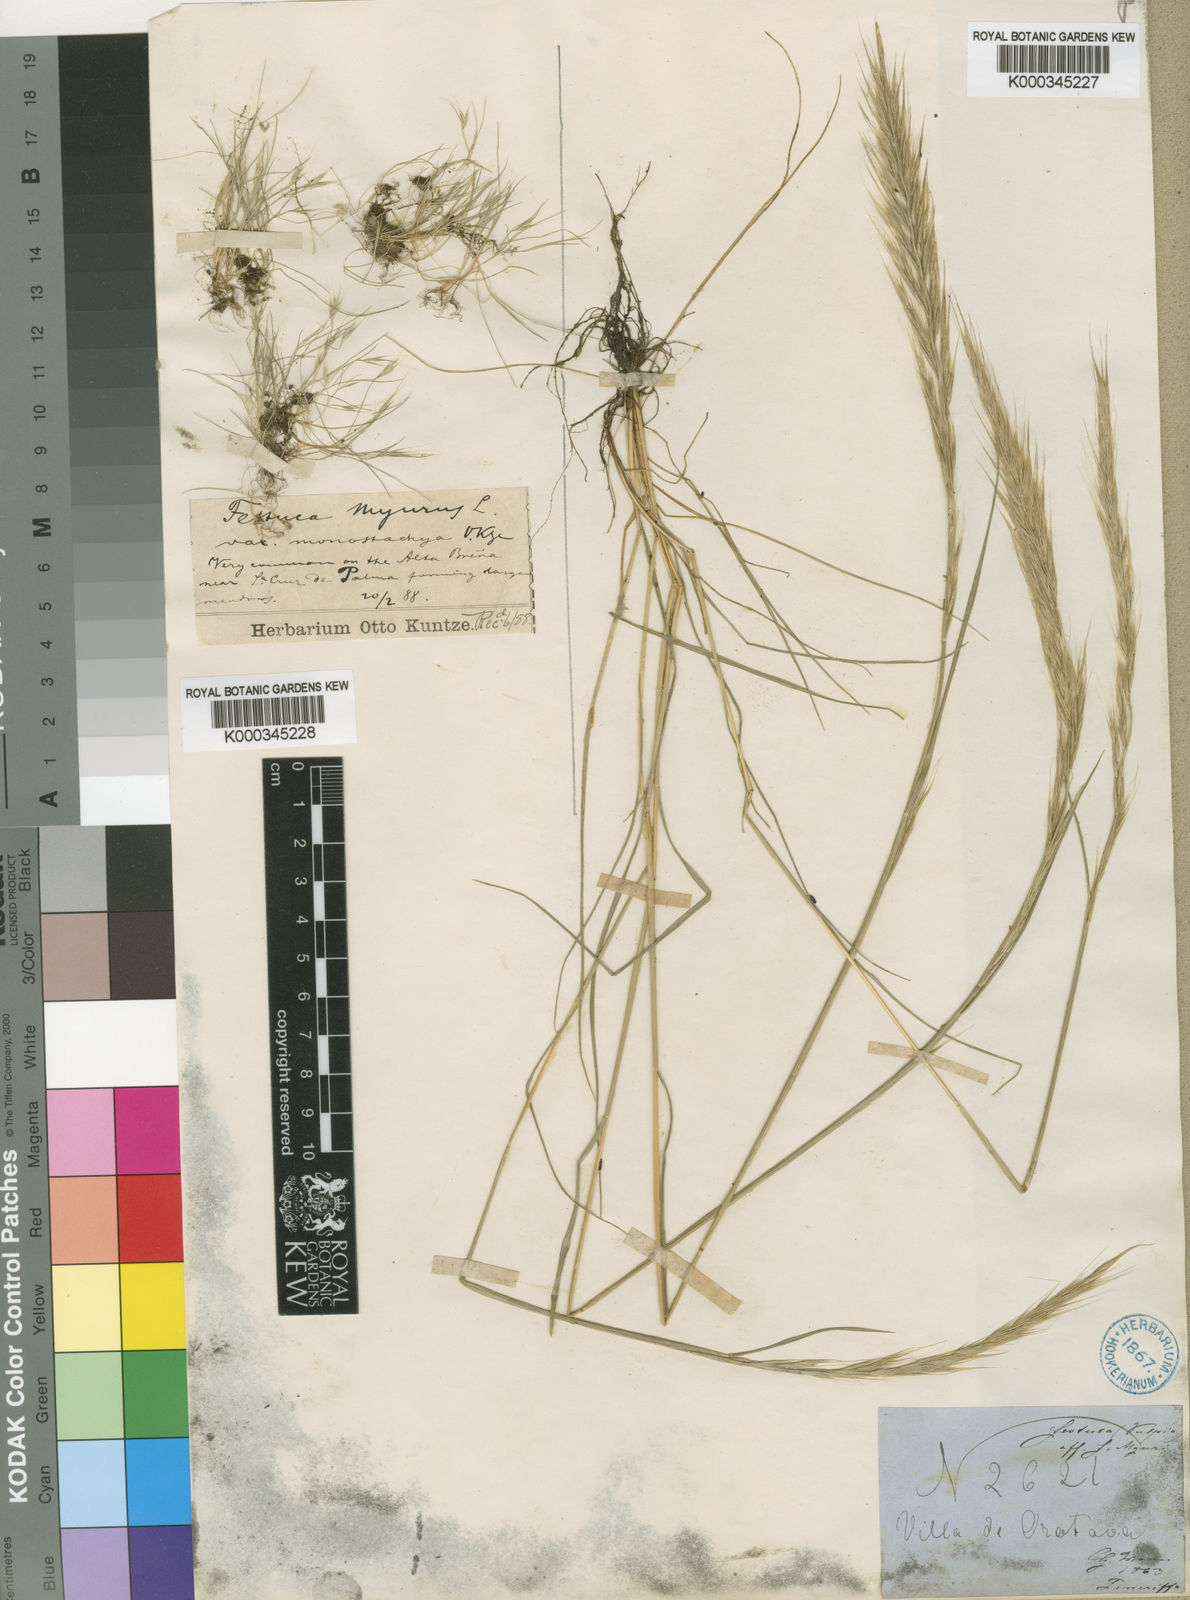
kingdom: Plantae
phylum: Tracheophyta
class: Liliopsida
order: Poales
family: Poaceae
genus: Festuca
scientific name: Festuca myuros
